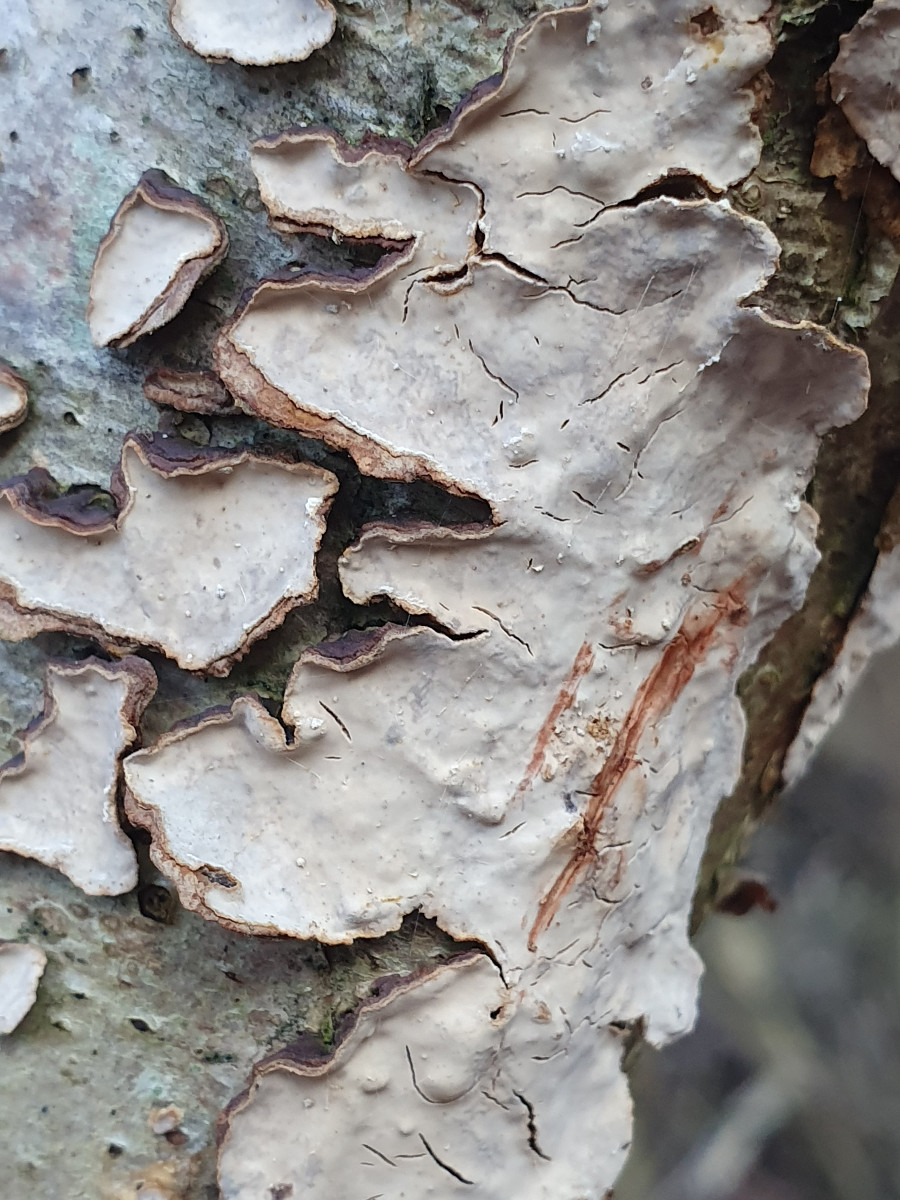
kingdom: Fungi
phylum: Basidiomycota
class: Agaricomycetes
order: Russulales
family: Stereaceae
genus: Stereum
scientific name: Stereum rugosum
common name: rynket lædersvamp
